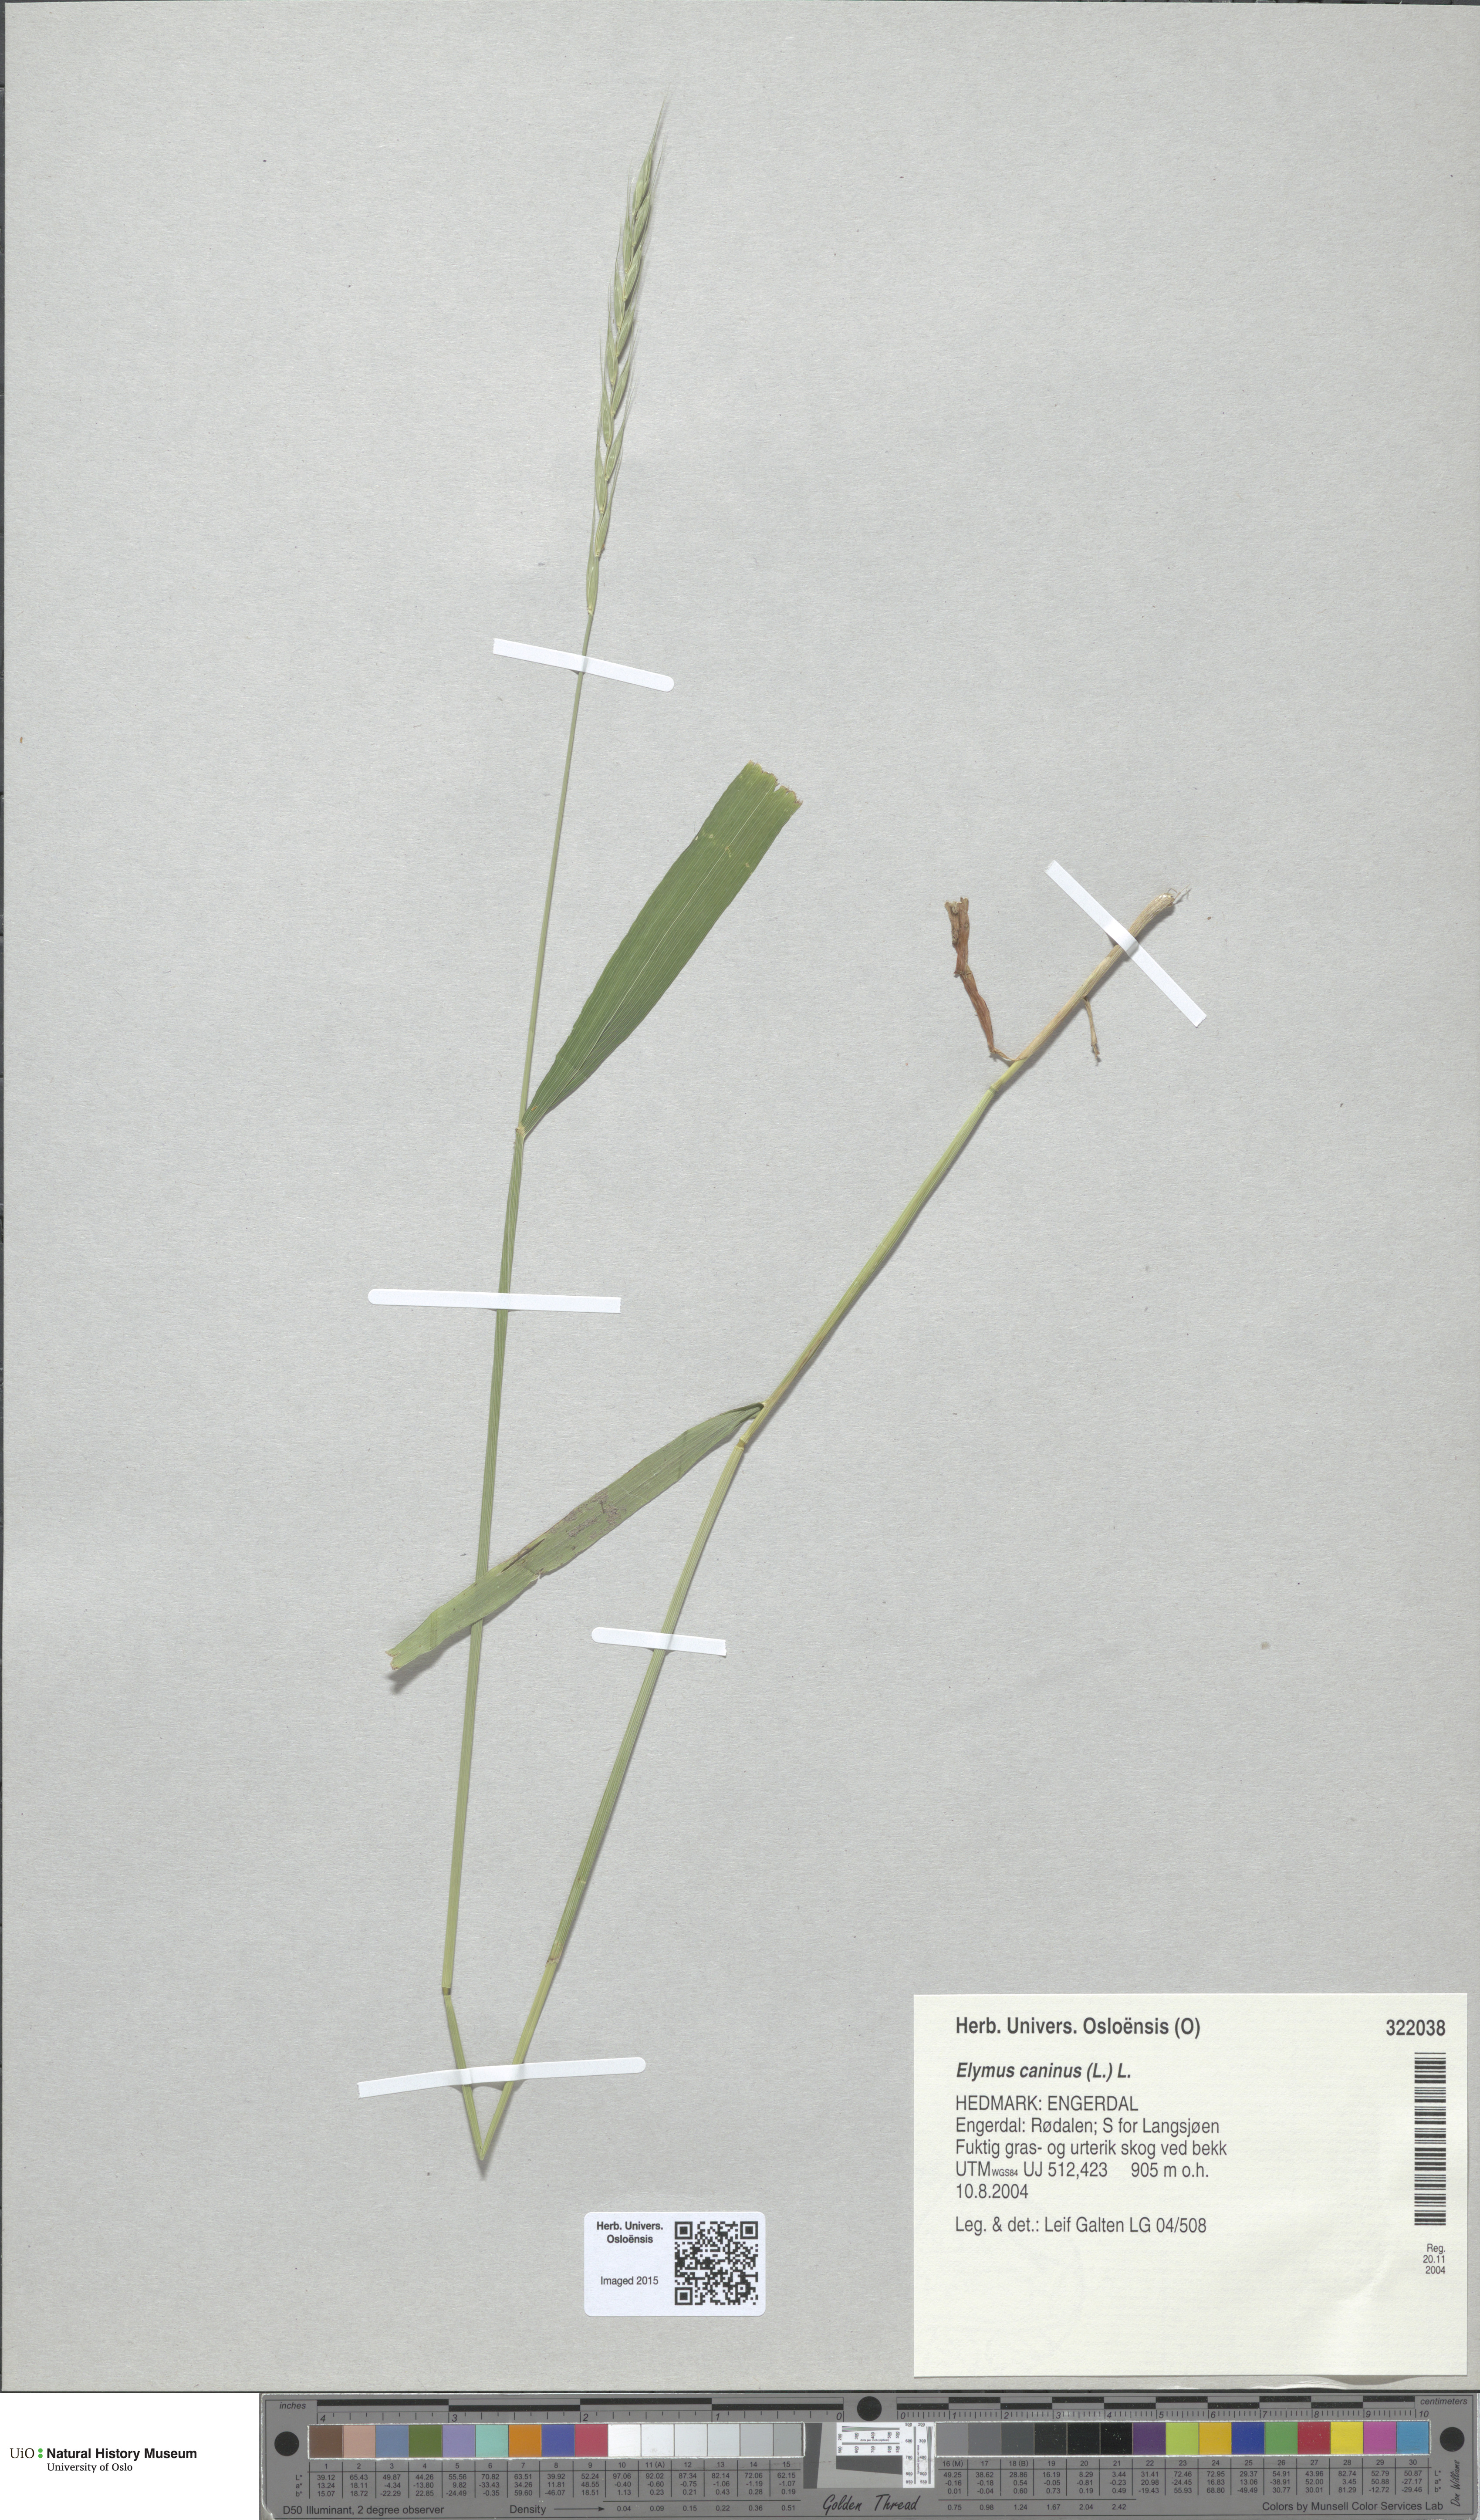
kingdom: Plantae
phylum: Tracheophyta
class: Liliopsida
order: Poales
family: Poaceae
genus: Elymus
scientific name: Elymus caninus
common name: Bearded couch
